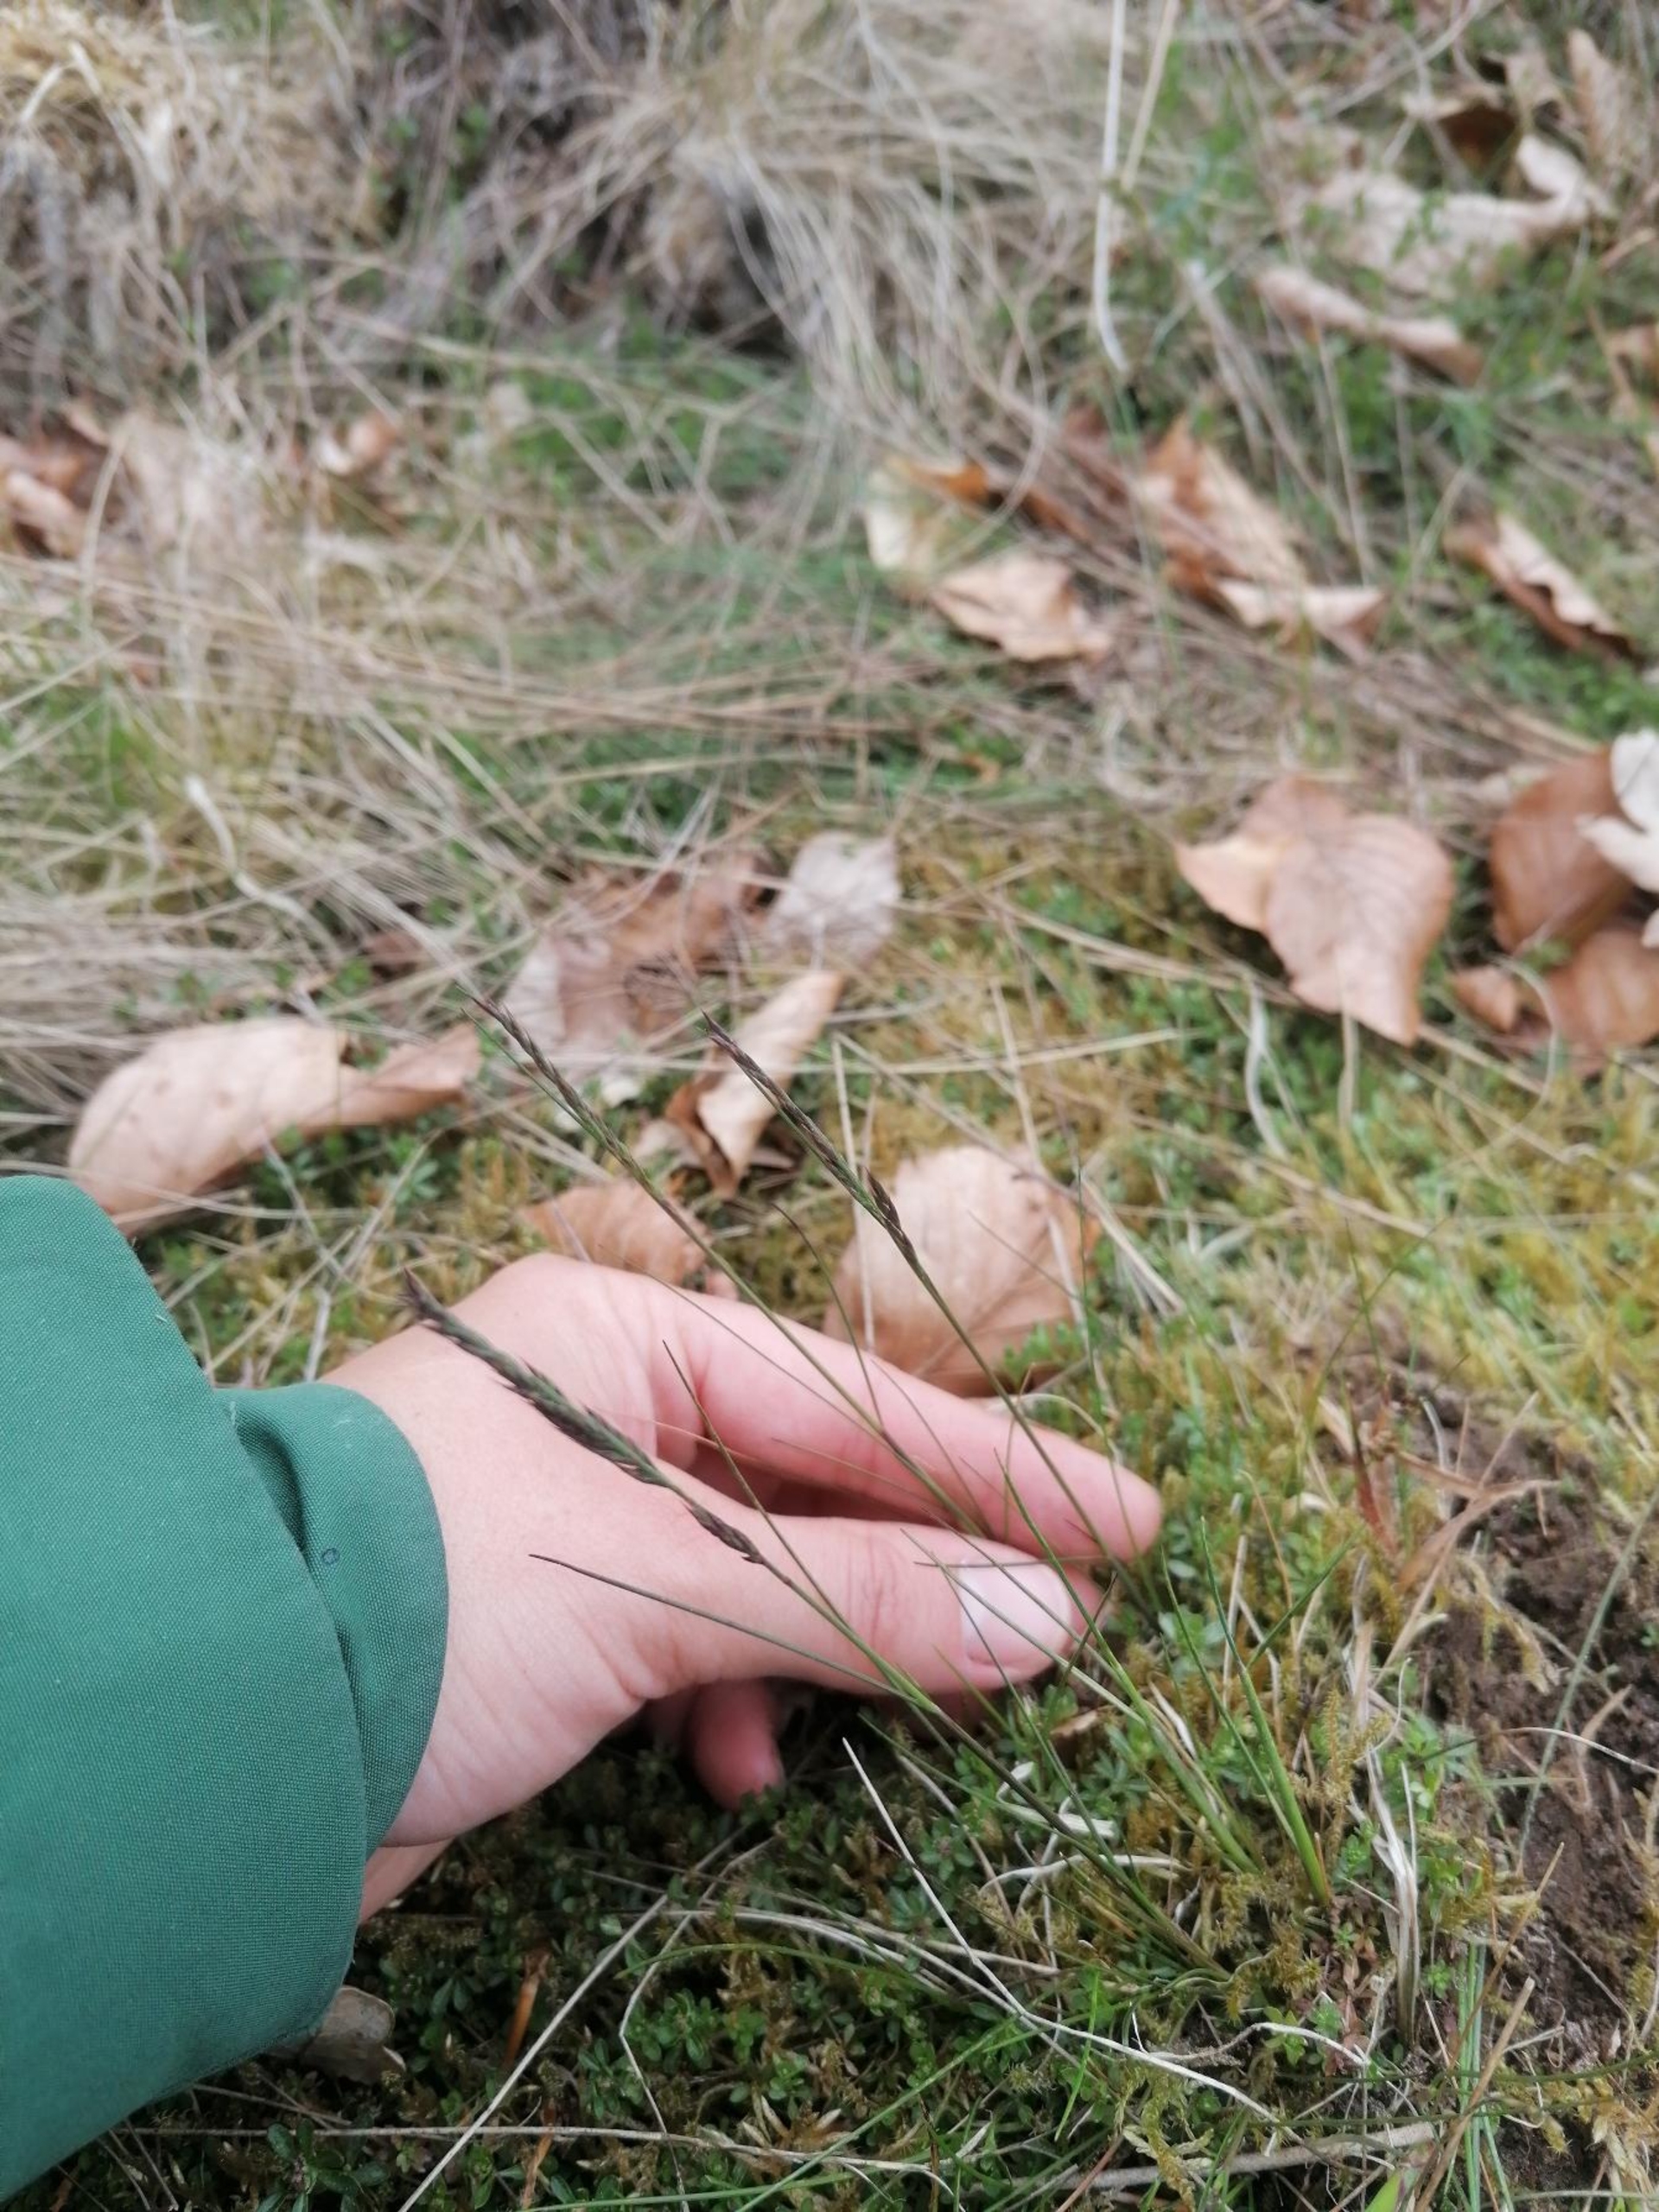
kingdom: Plantae
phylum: Tracheophyta
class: Liliopsida
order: Poales
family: Poaceae
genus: Festuca
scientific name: Festuca rubra
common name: Rød svingel
